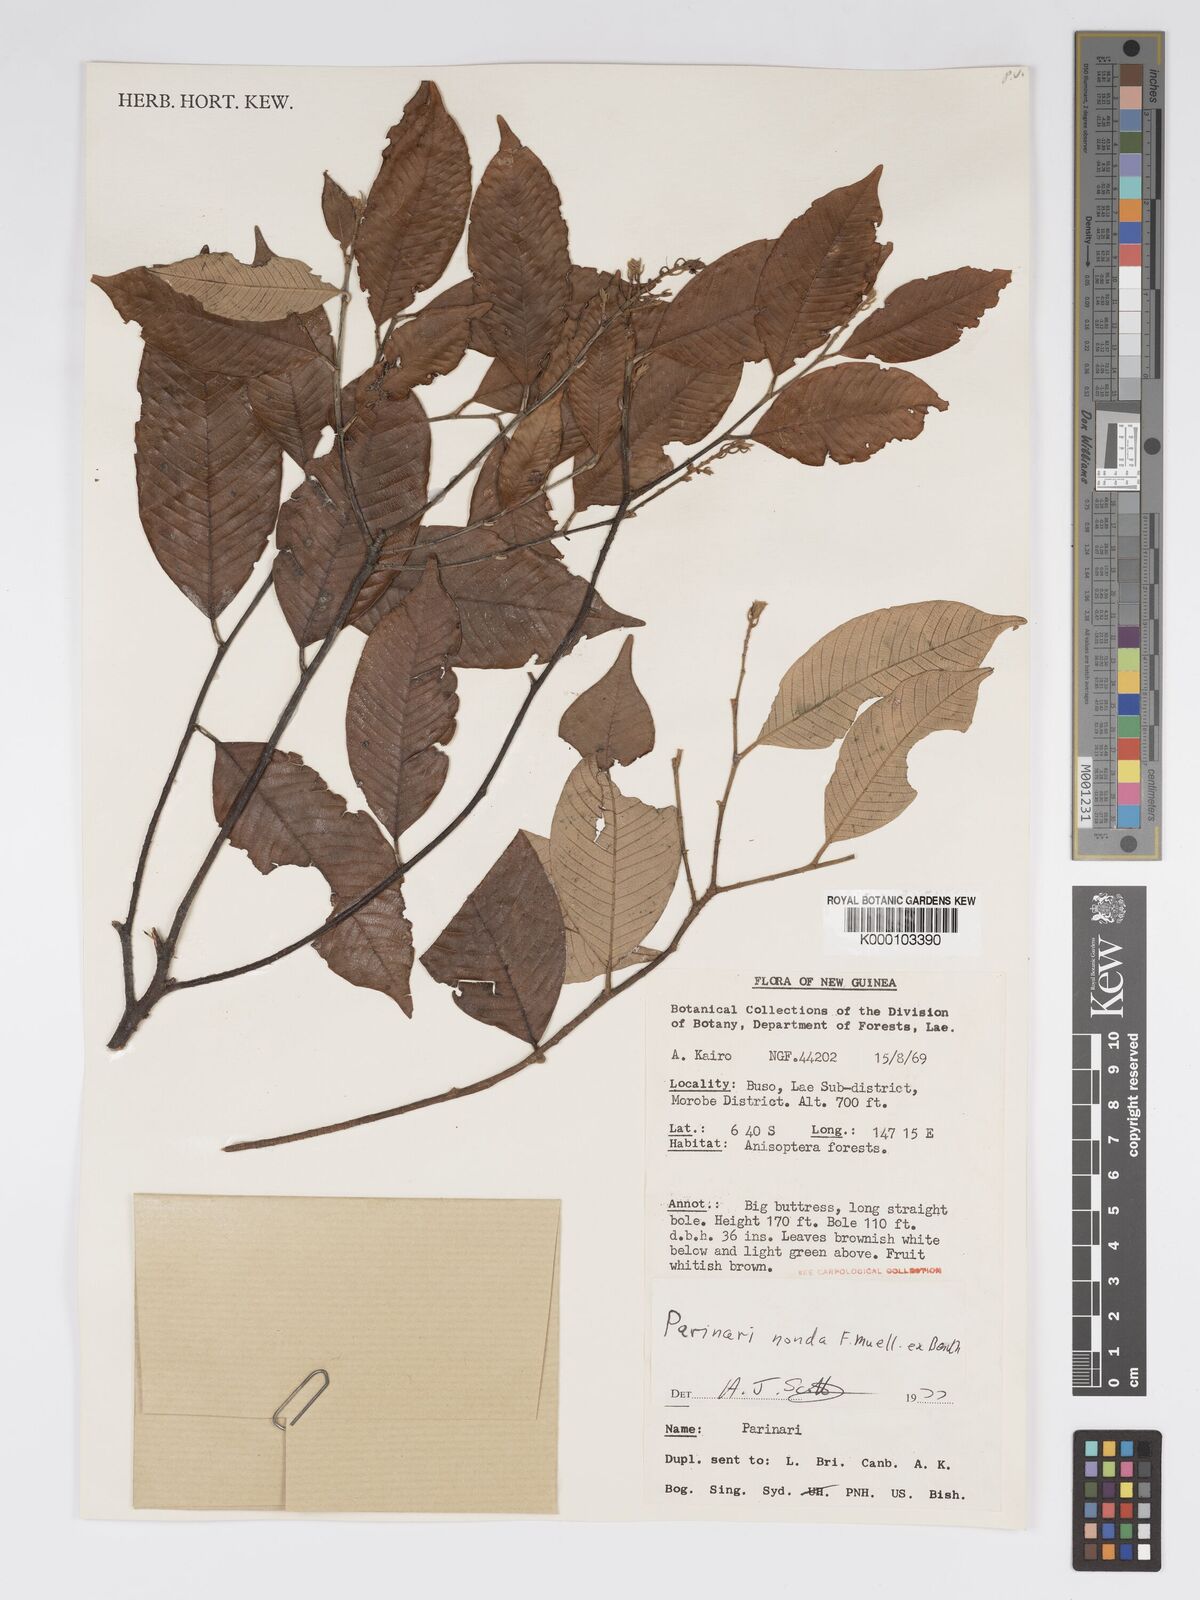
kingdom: Plantae
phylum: Tracheophyta
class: Magnoliopsida
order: Malpighiales
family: Chrysobalanaceae
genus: Parinari
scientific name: Parinari nonda
